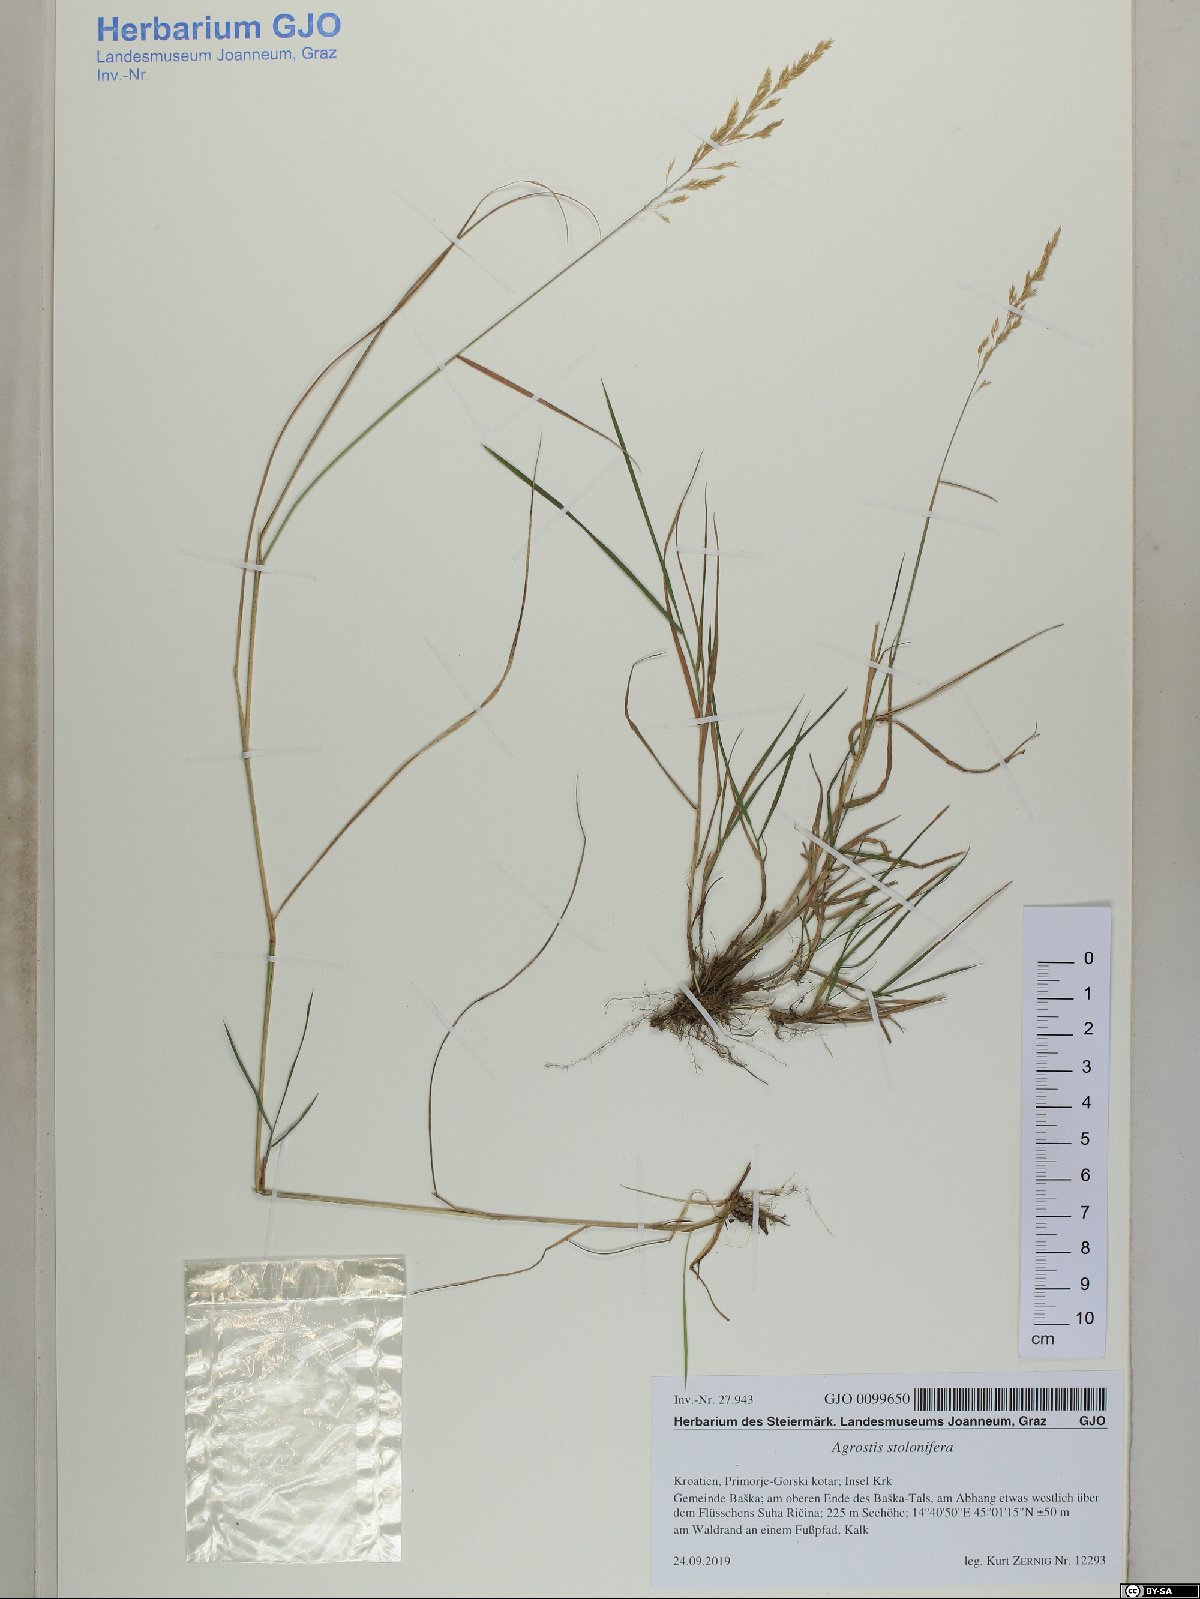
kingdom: Plantae
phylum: Tracheophyta
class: Liliopsida
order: Poales
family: Poaceae
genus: Agrostis
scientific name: Agrostis stolonifera
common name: Creeping bentgrass
